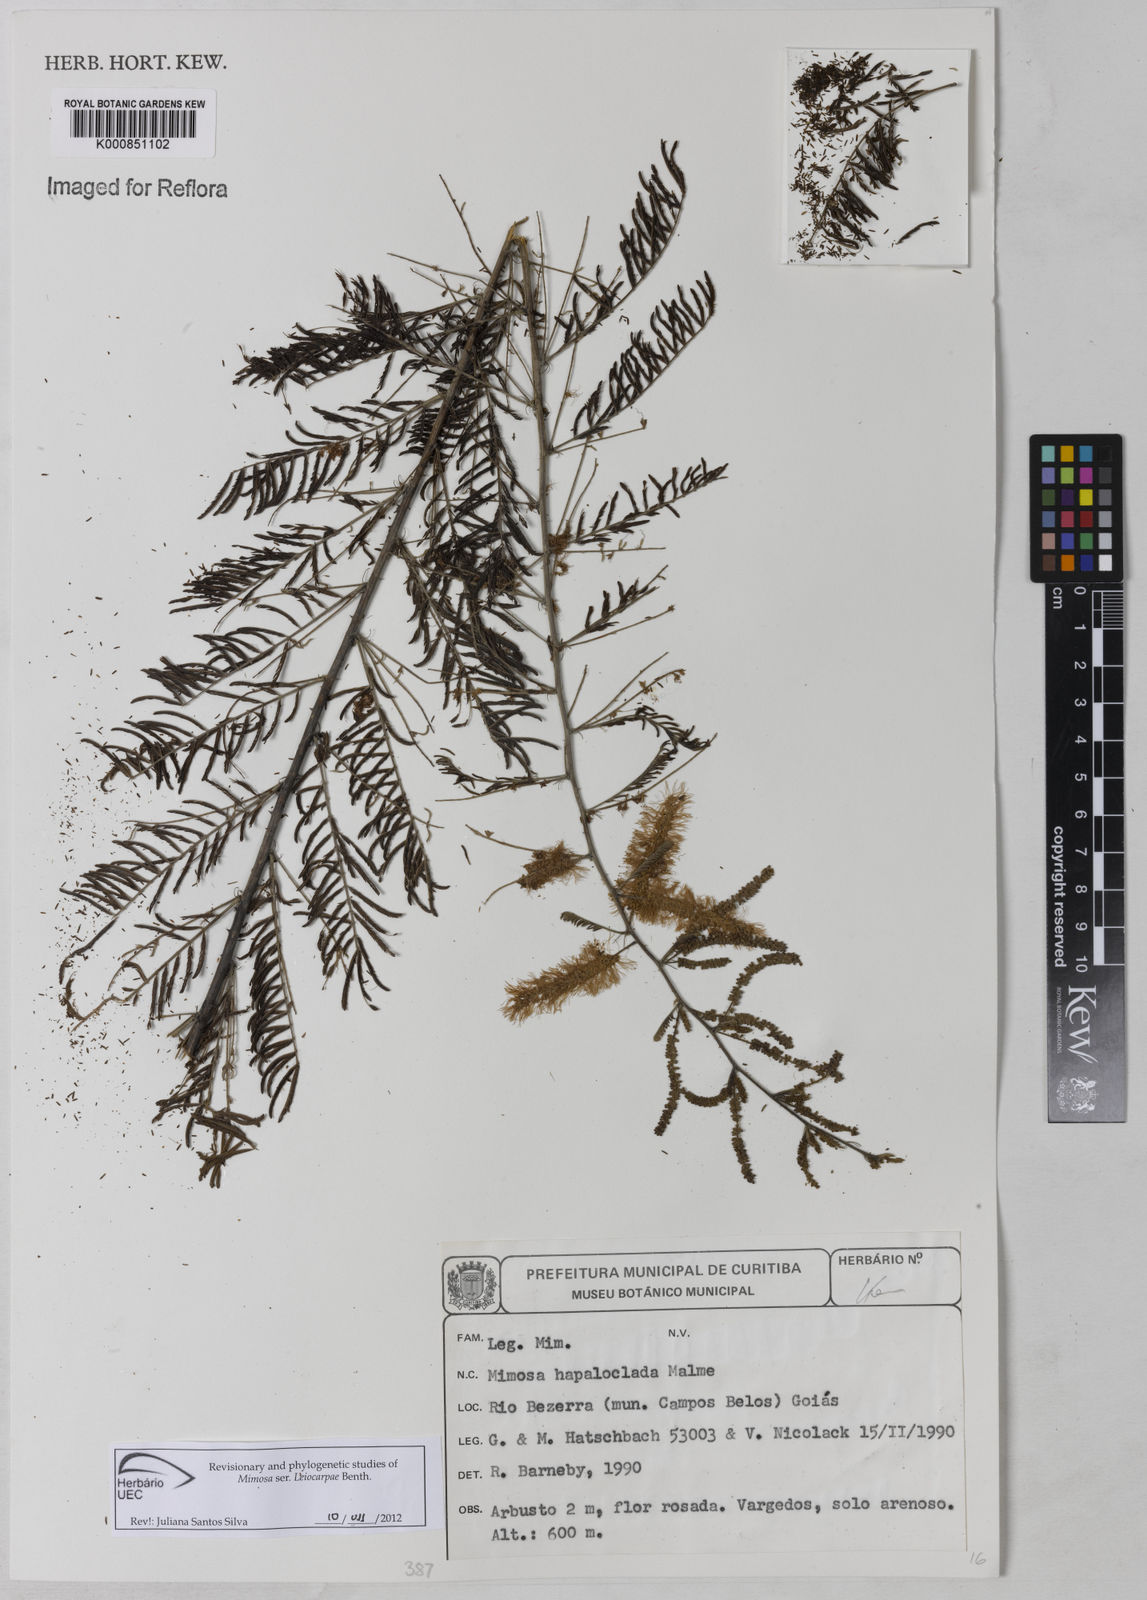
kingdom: Plantae
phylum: Tracheophyta
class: Magnoliopsida
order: Fabales
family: Fabaceae
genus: Mimosa
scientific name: Mimosa hapaloclada
